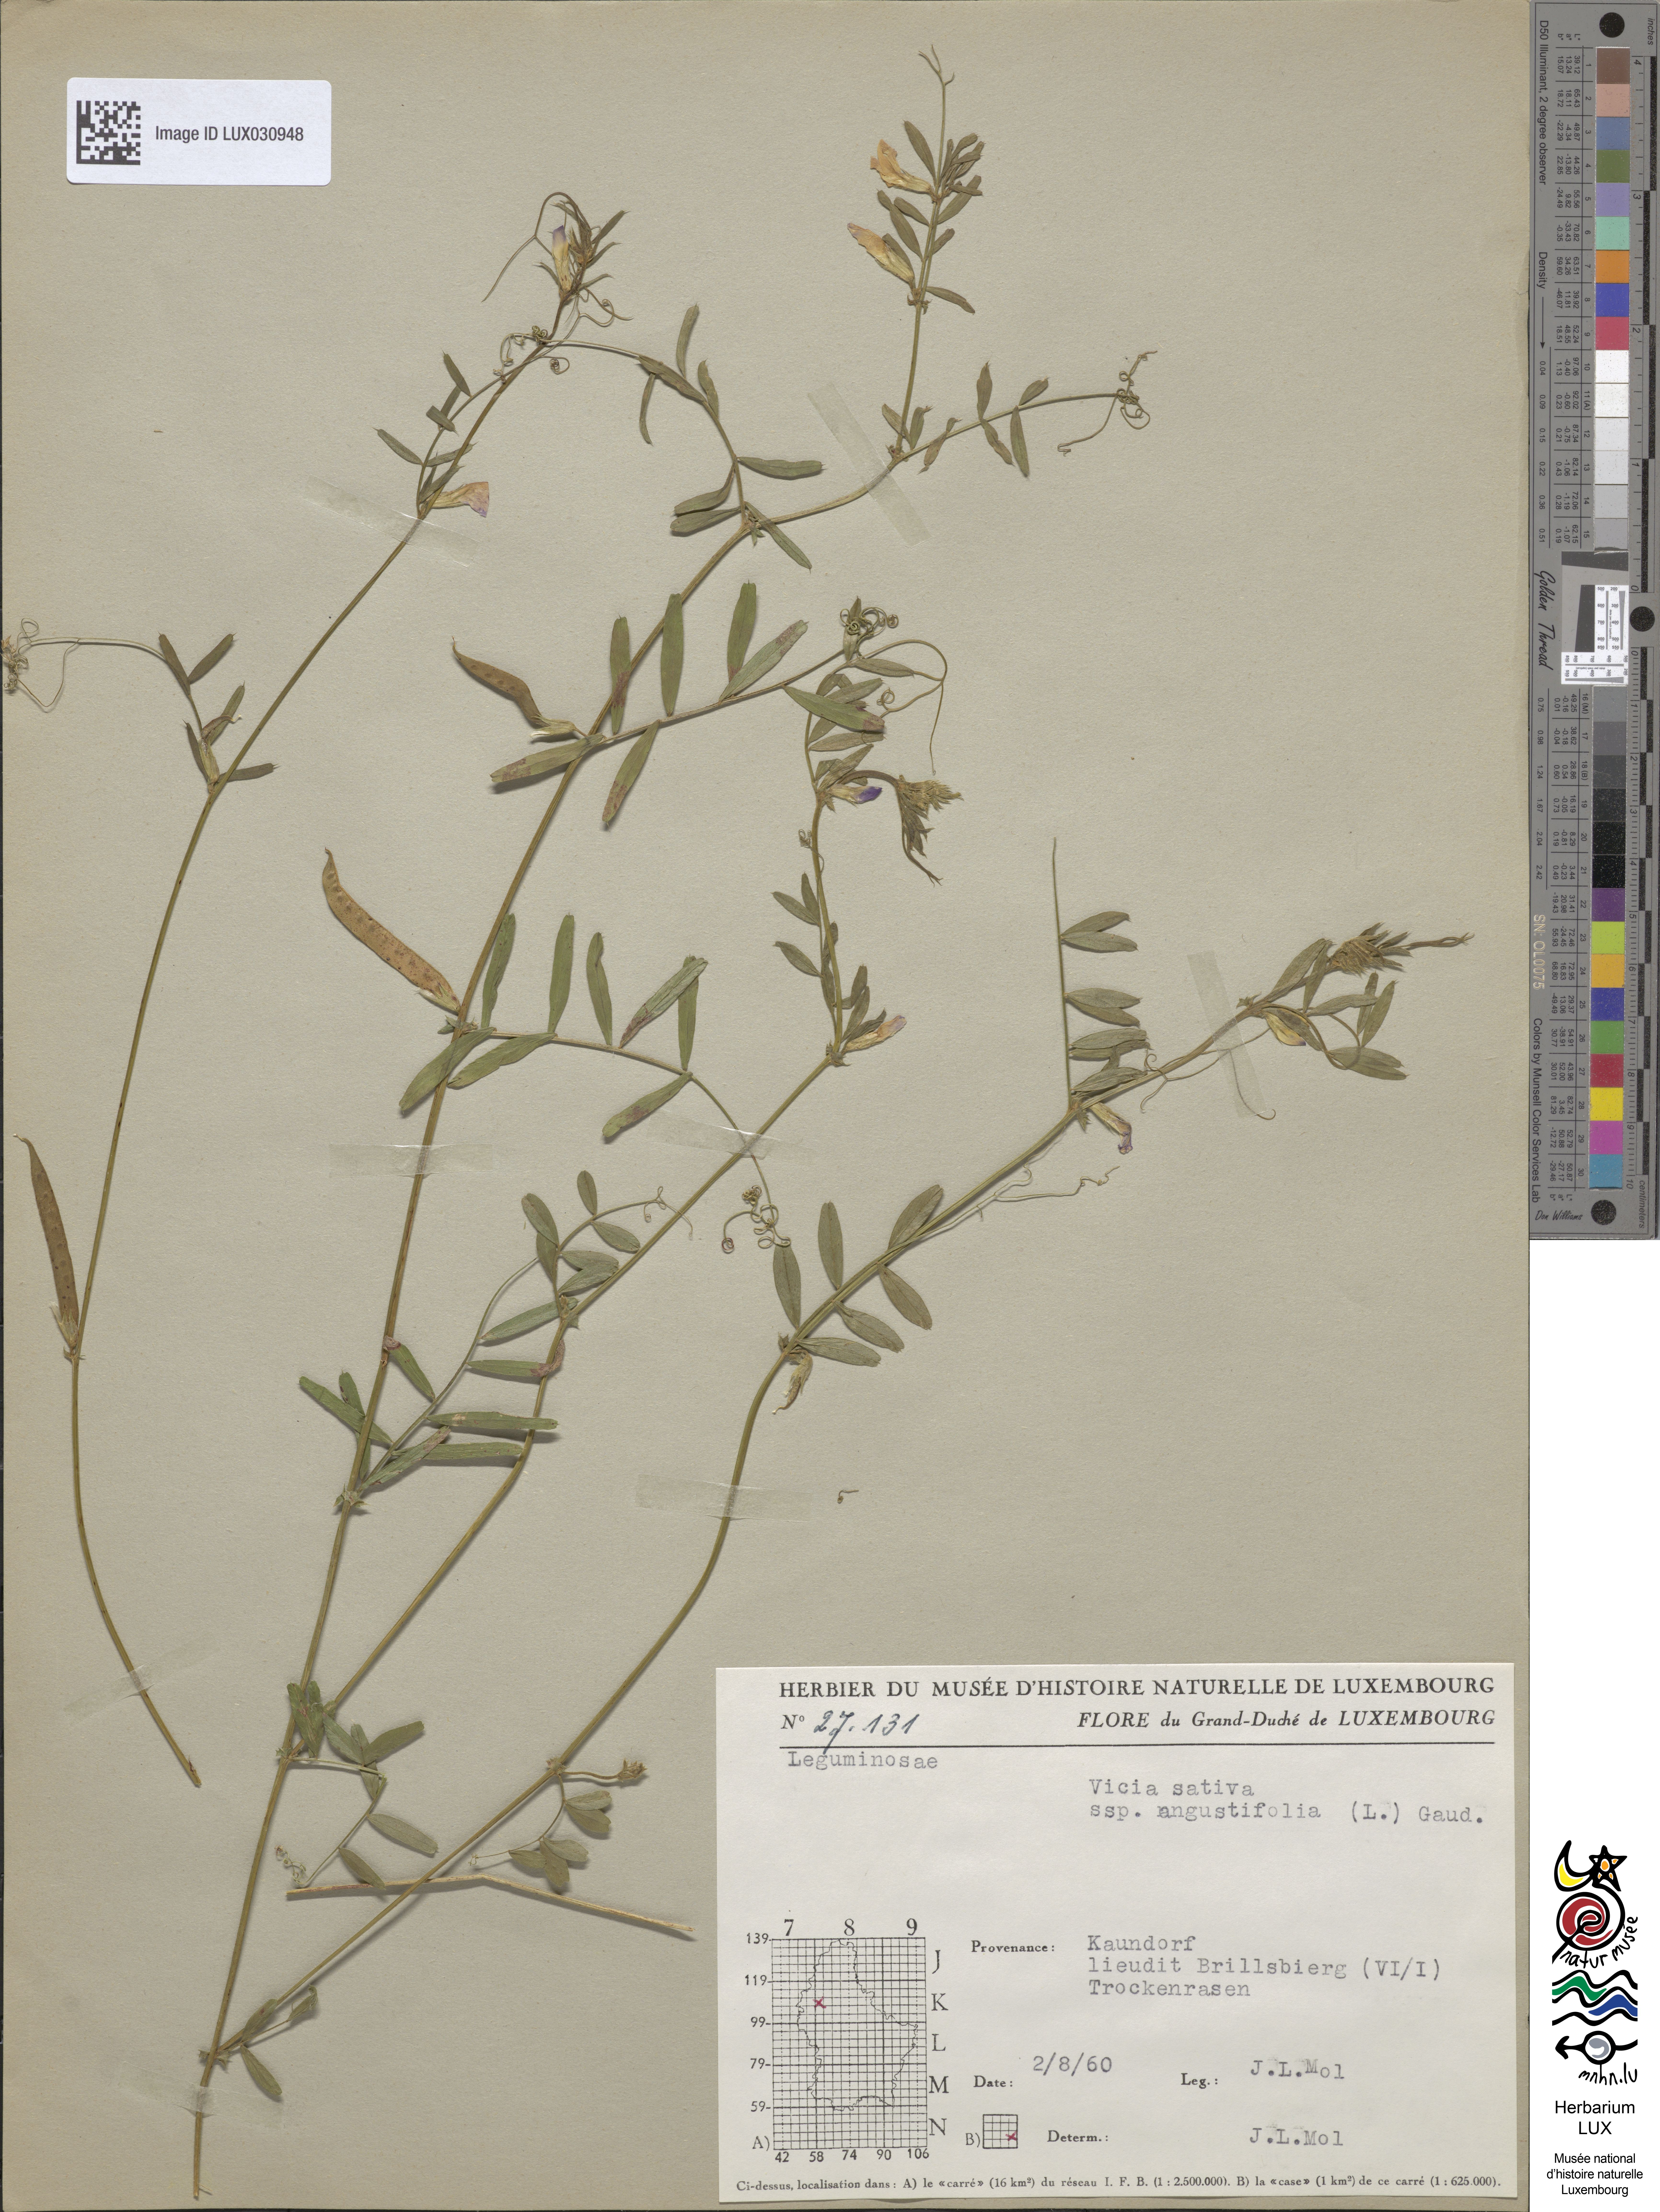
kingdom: Plantae
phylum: Tracheophyta
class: Magnoliopsida
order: Fabales
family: Fabaceae
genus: Vicia
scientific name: Vicia sativa
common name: Garden vetch
